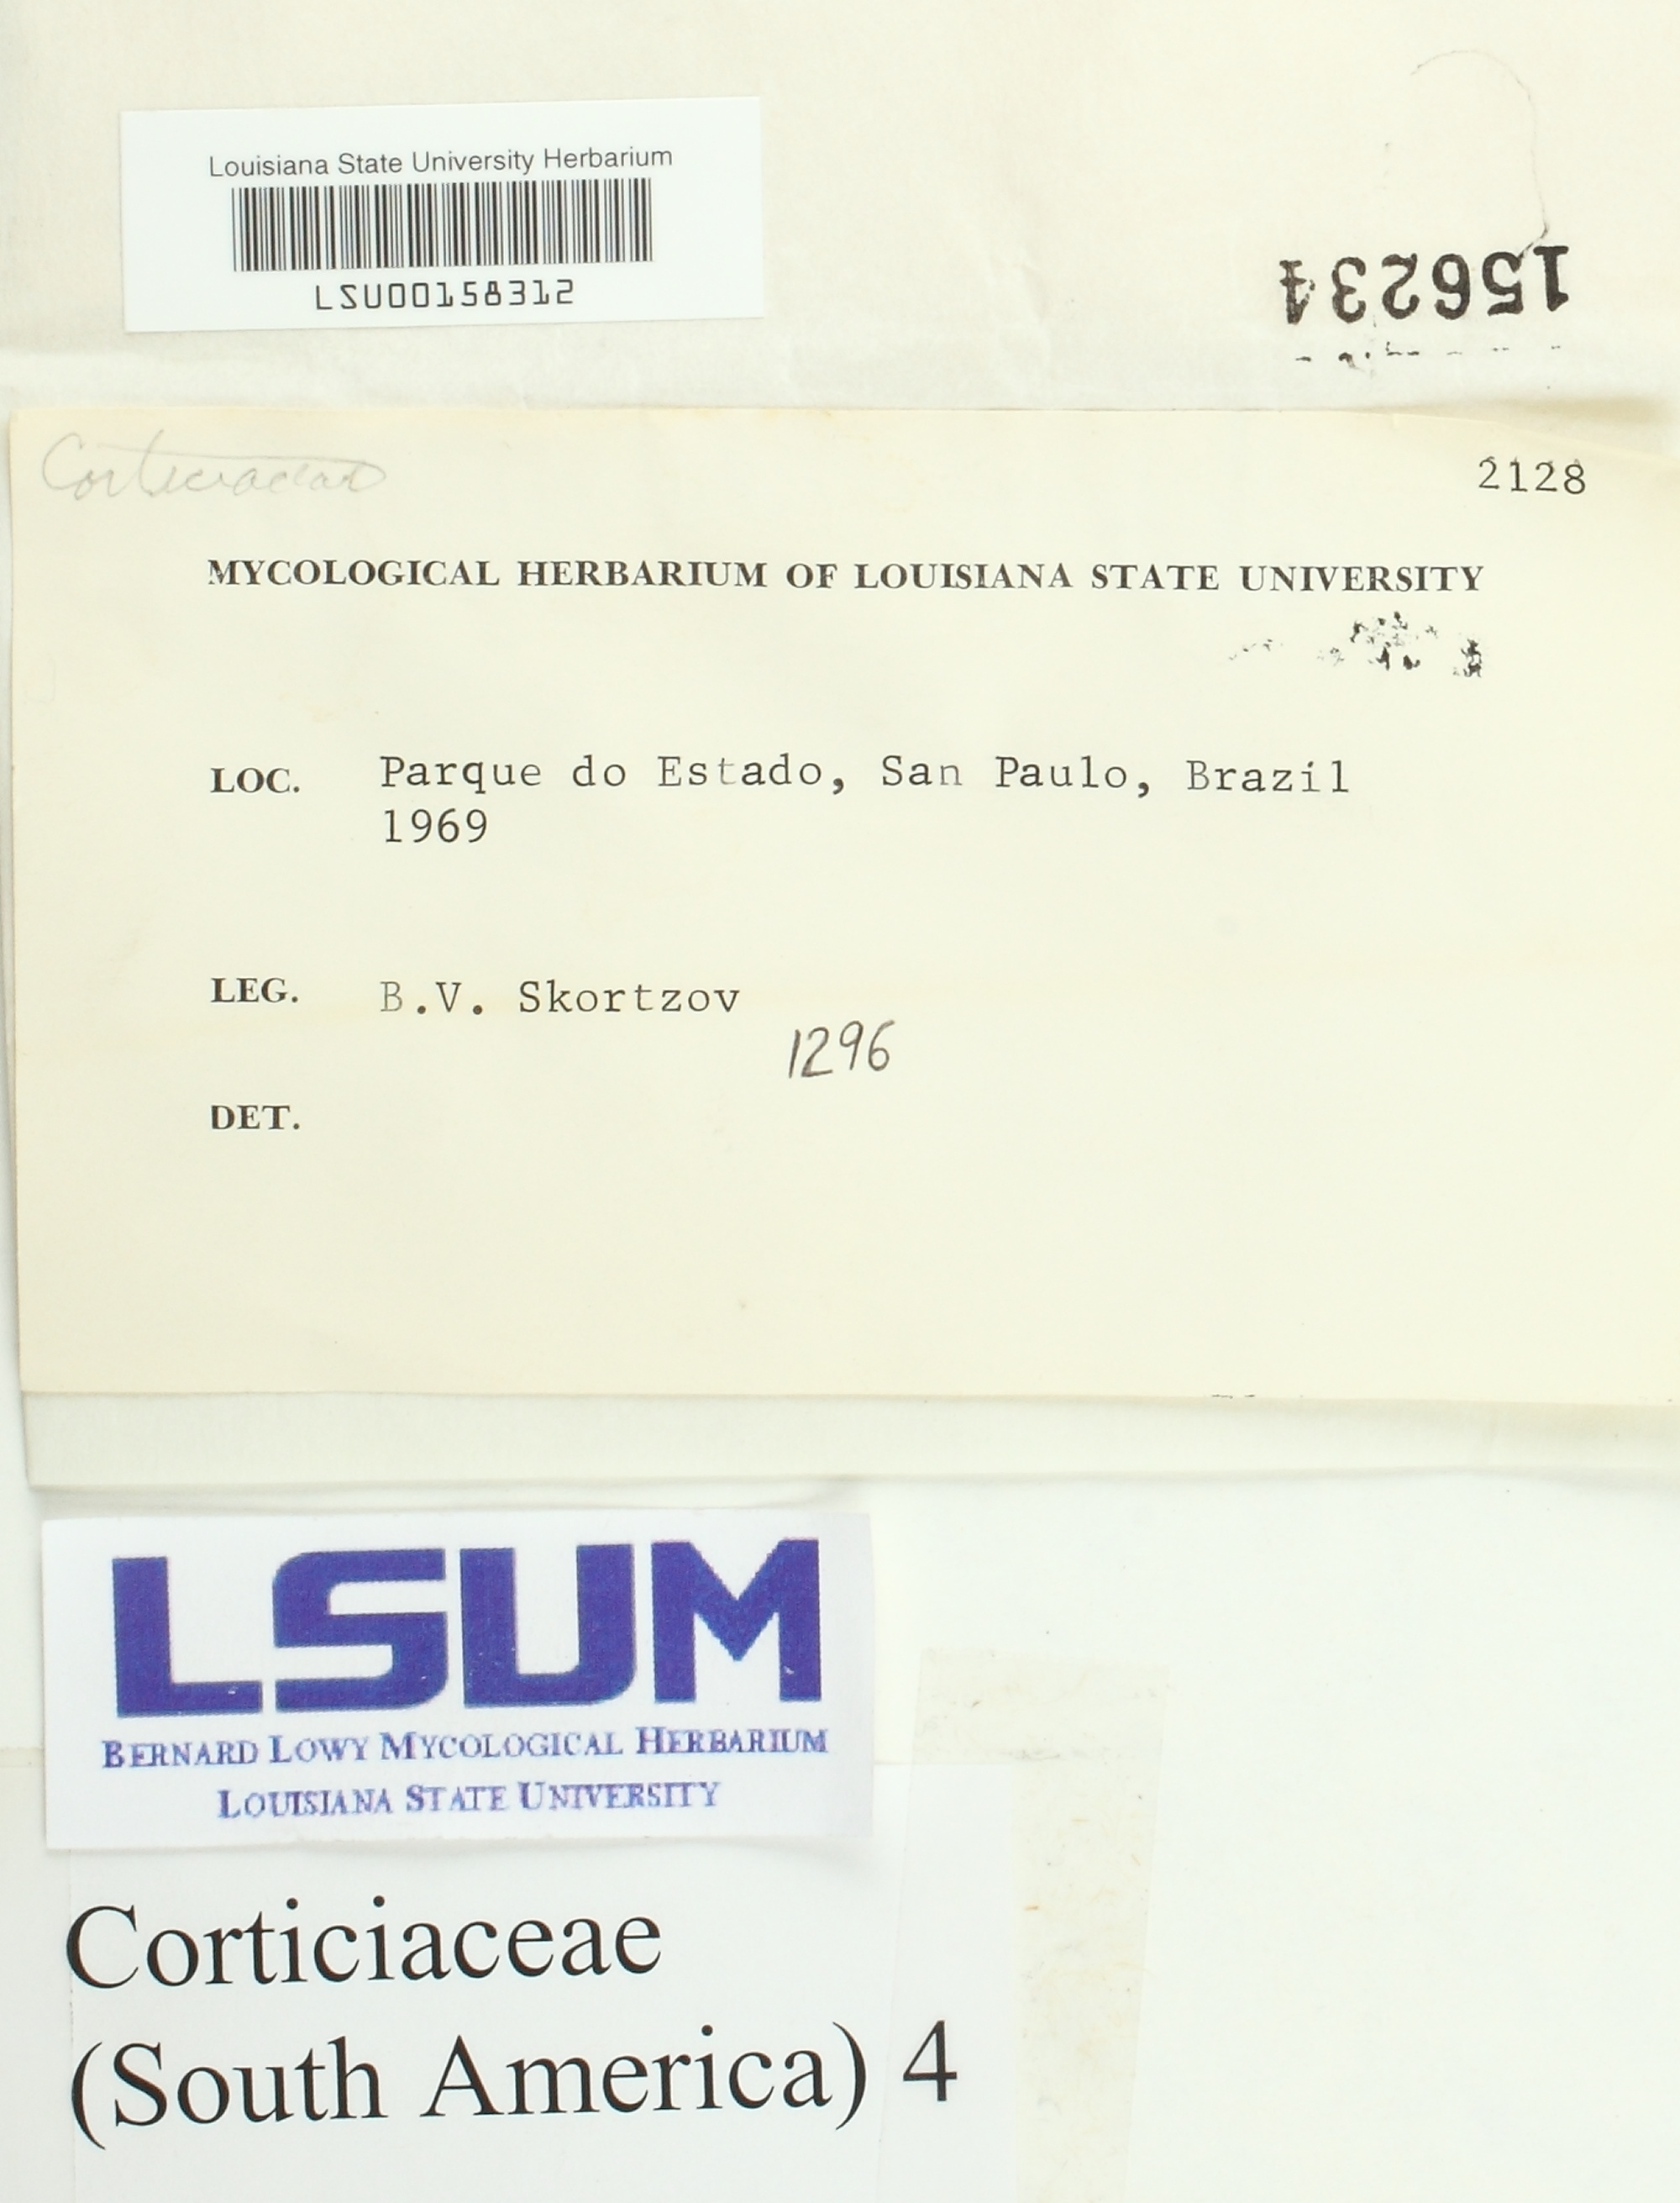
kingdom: Fungi
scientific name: Fungi
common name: Fungi
